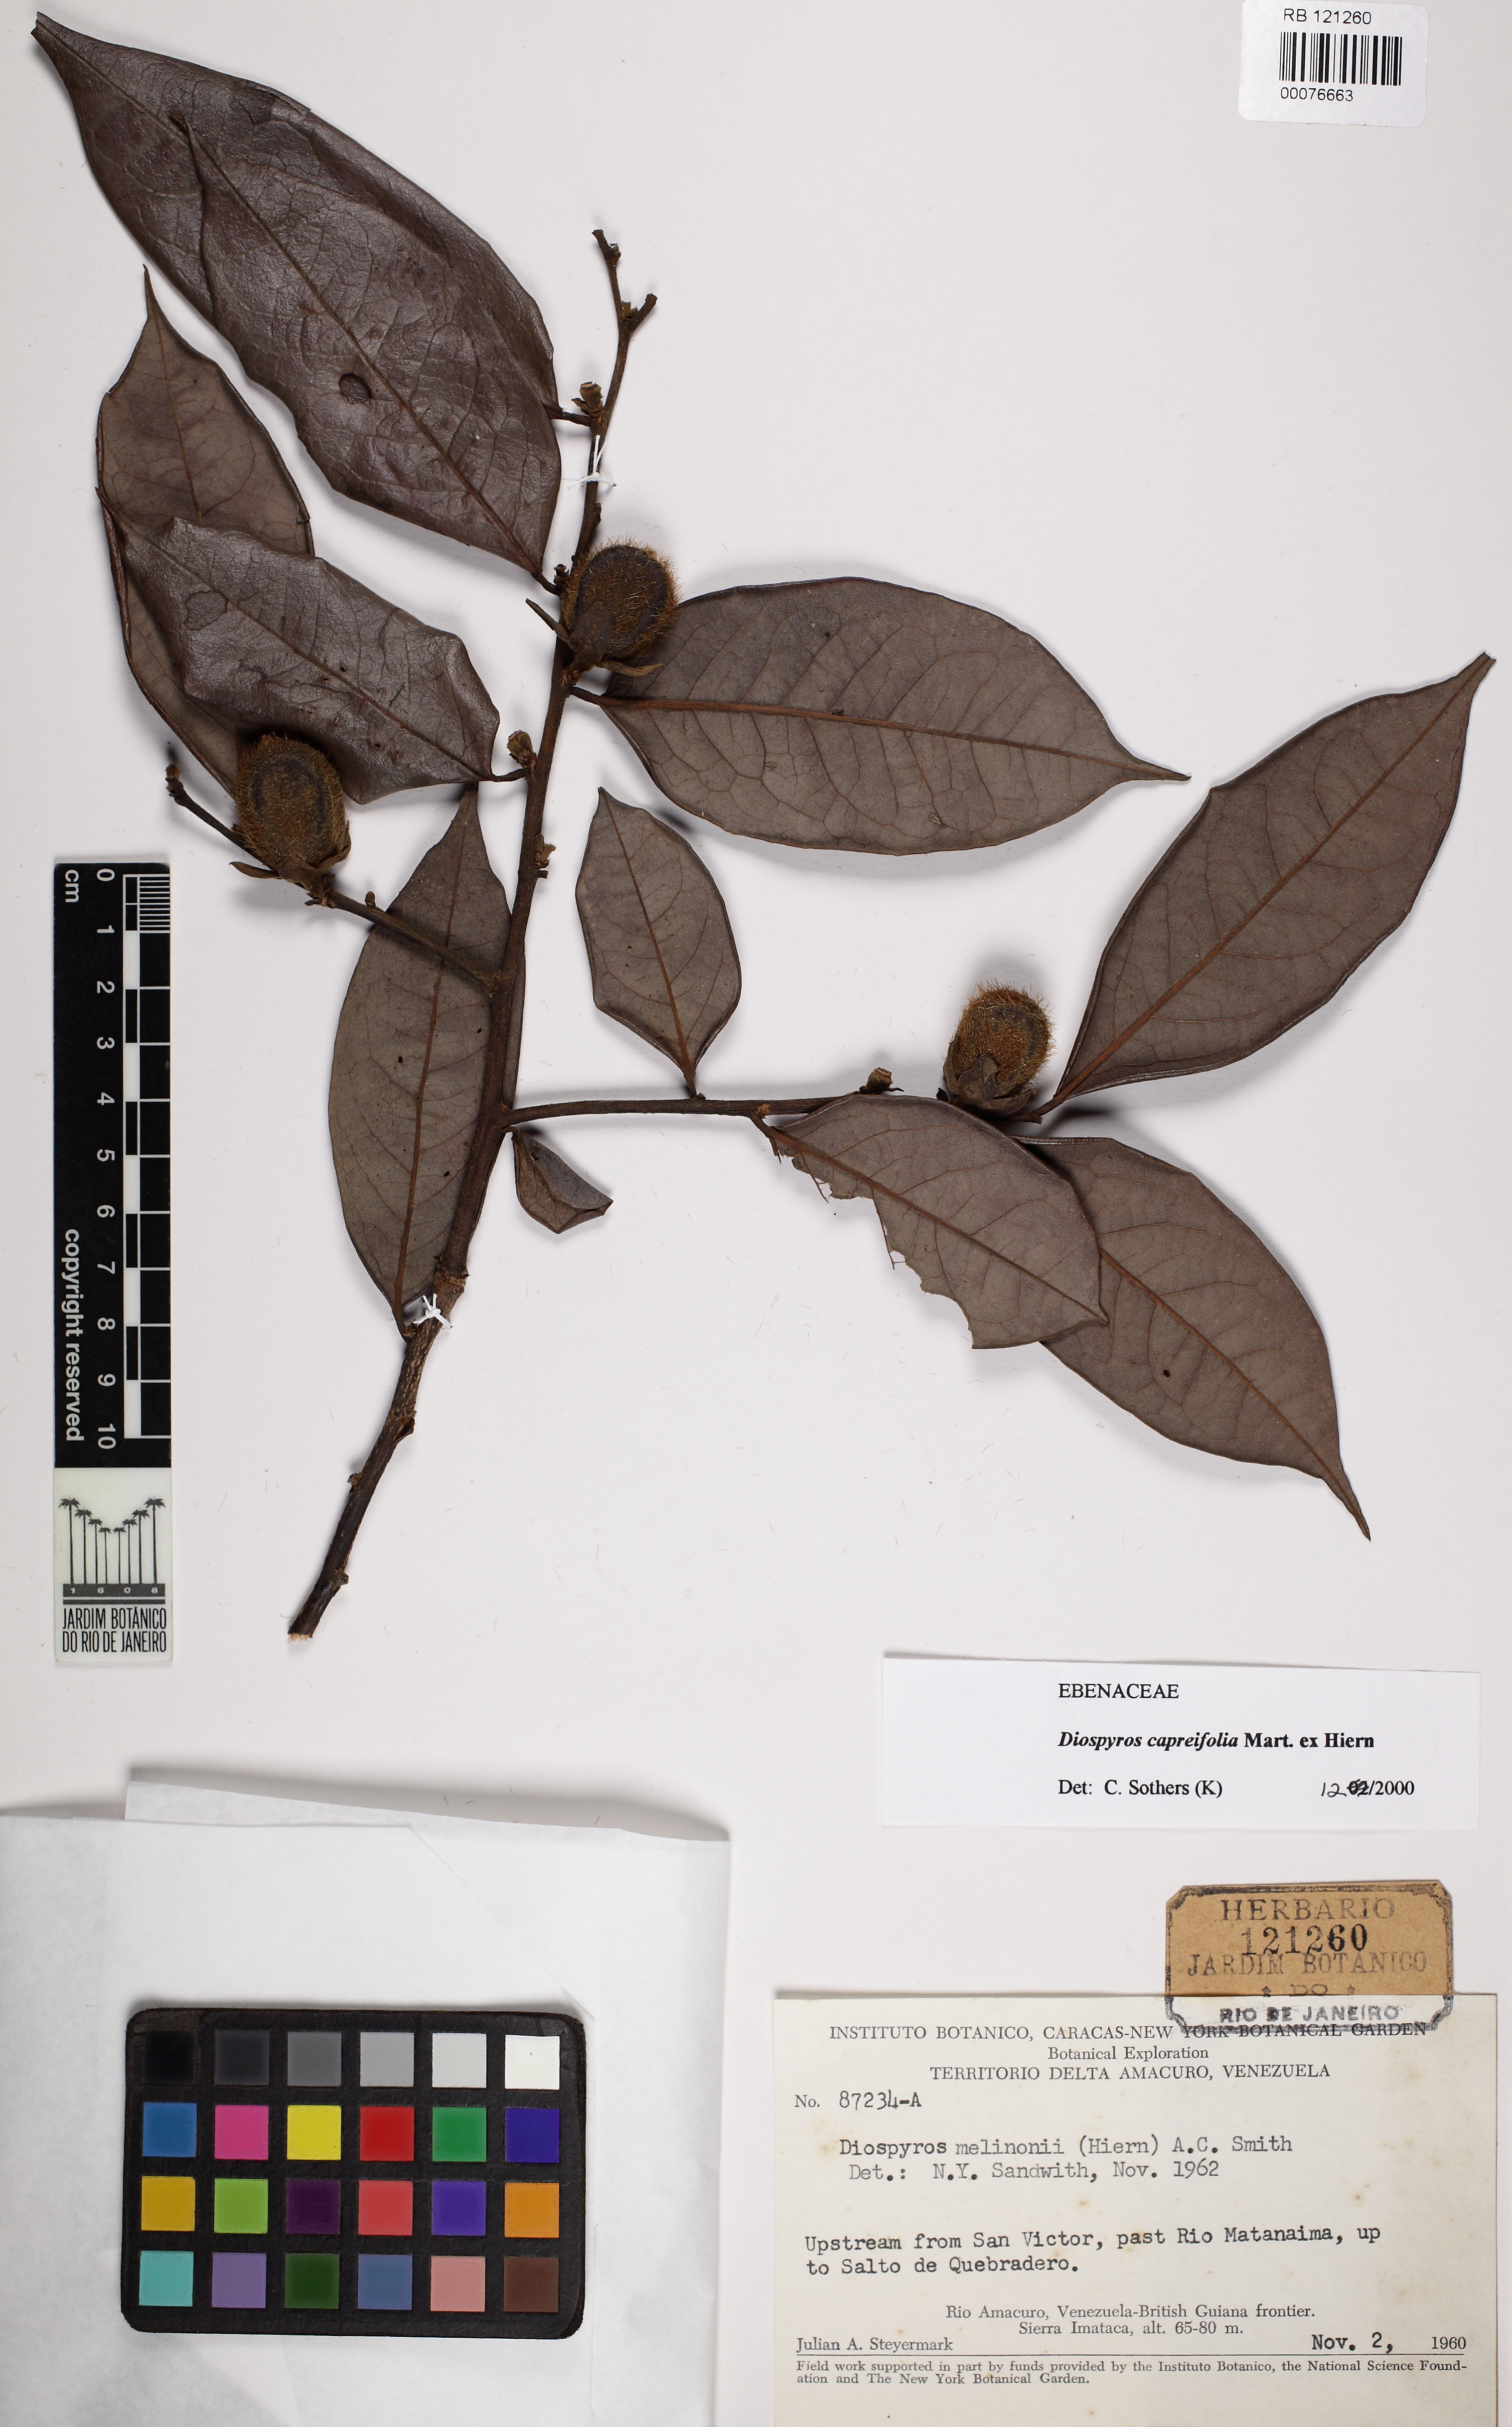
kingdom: Plantae
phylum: Tracheophyta
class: Magnoliopsida
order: Ericales
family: Ebenaceae
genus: Diospyros
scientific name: Diospyros capreifolia
